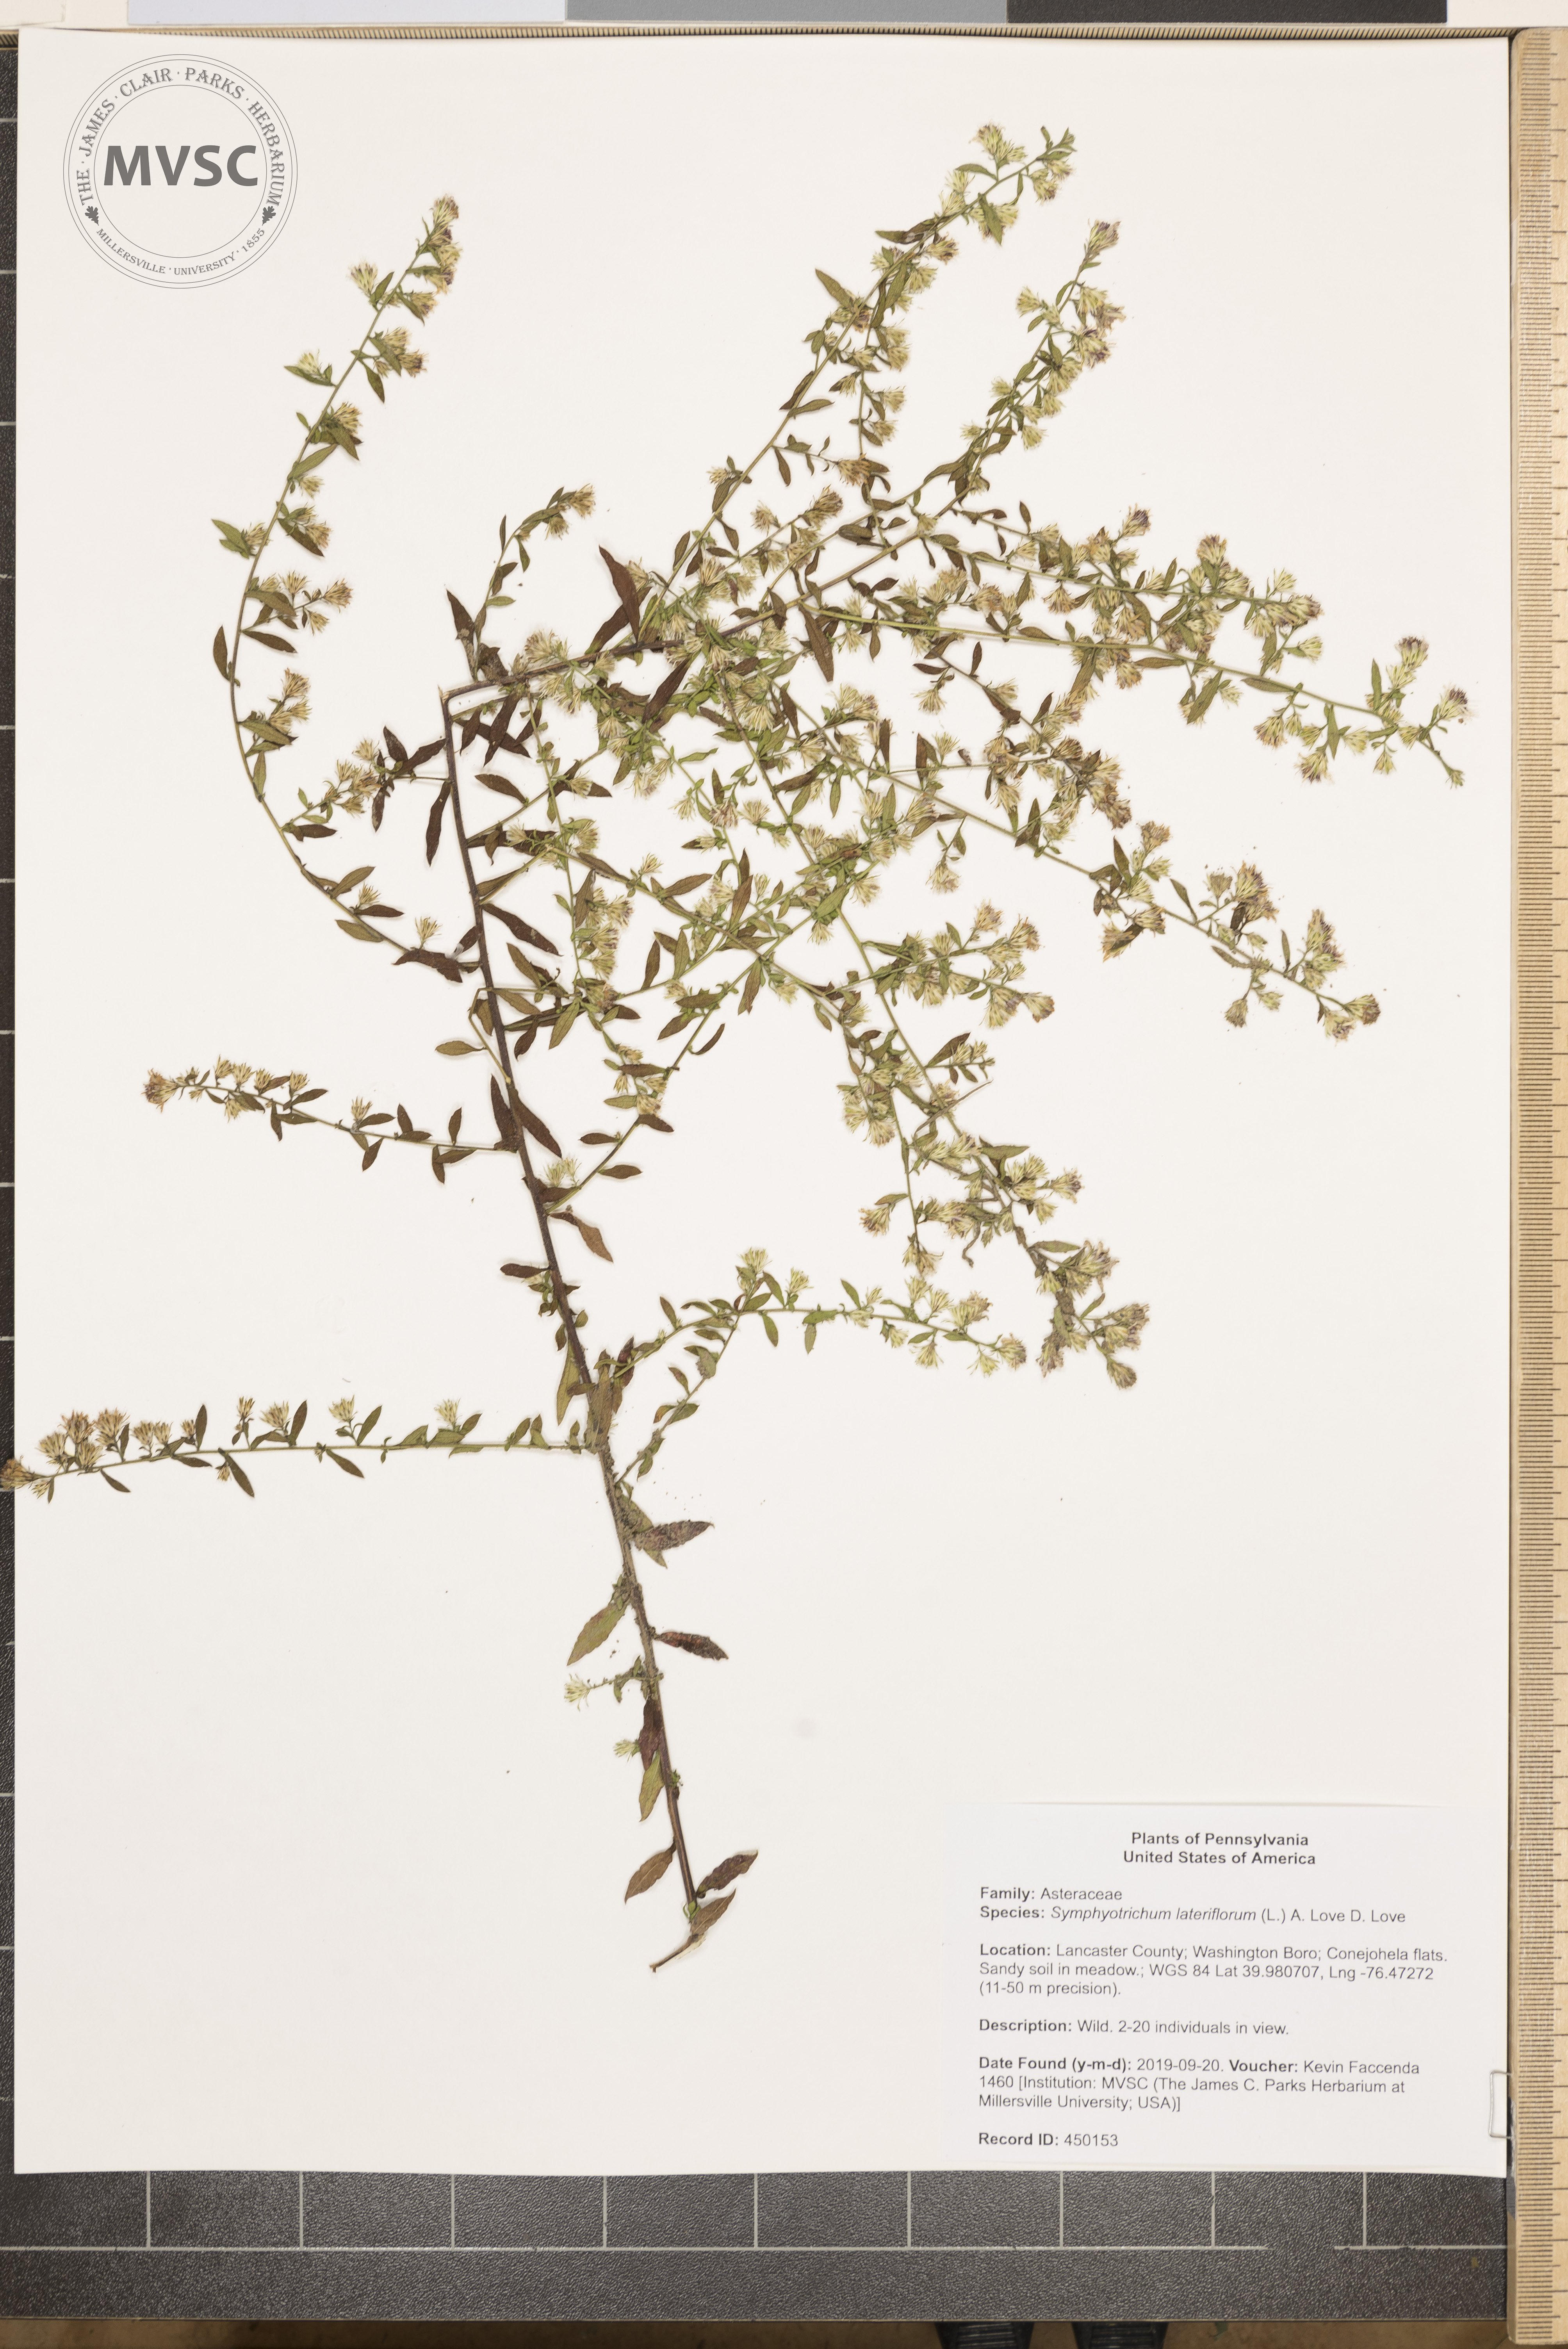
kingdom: Plantae
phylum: Tracheophyta
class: Magnoliopsida
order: Asterales
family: Asteraceae
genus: Symphyotrichum
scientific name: Symphyotrichum lateriflorum
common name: Calico aster
